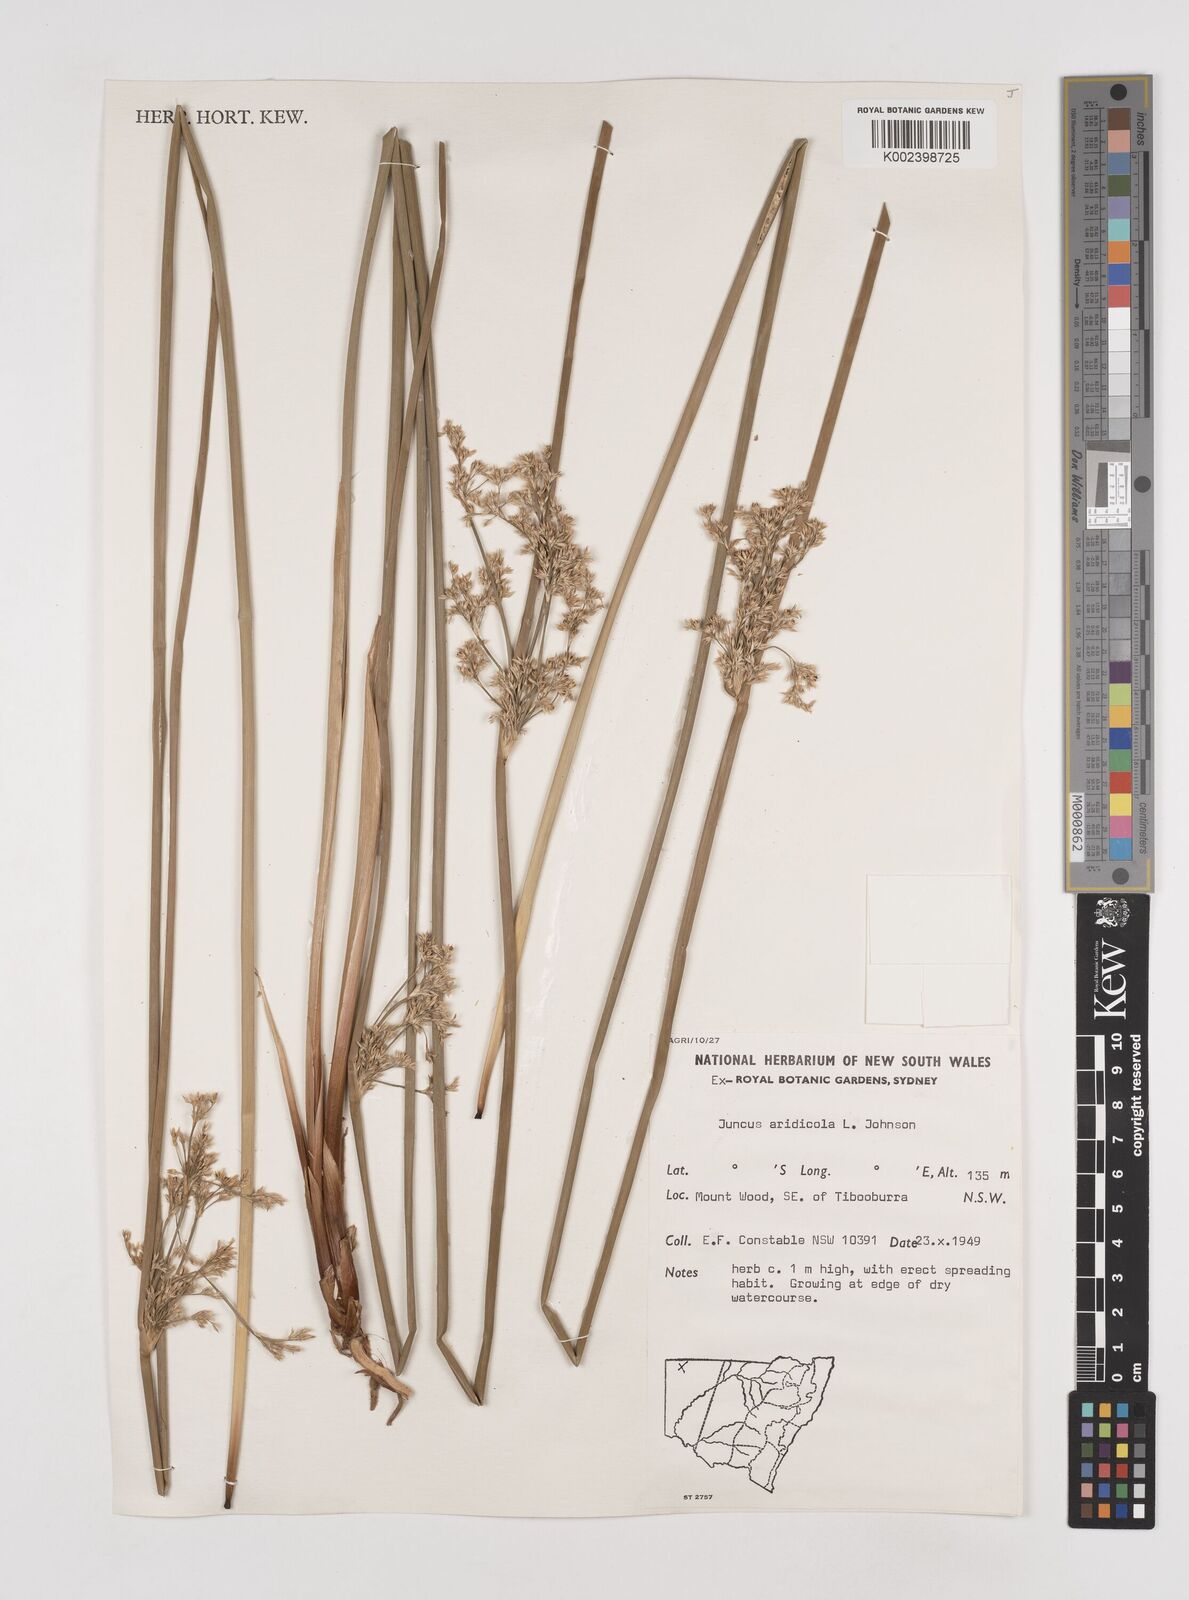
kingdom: Plantae
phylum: Tracheophyta
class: Liliopsida
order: Poales
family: Juncaceae
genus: Juncus
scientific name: Juncus aridicola
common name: Tussock rush
